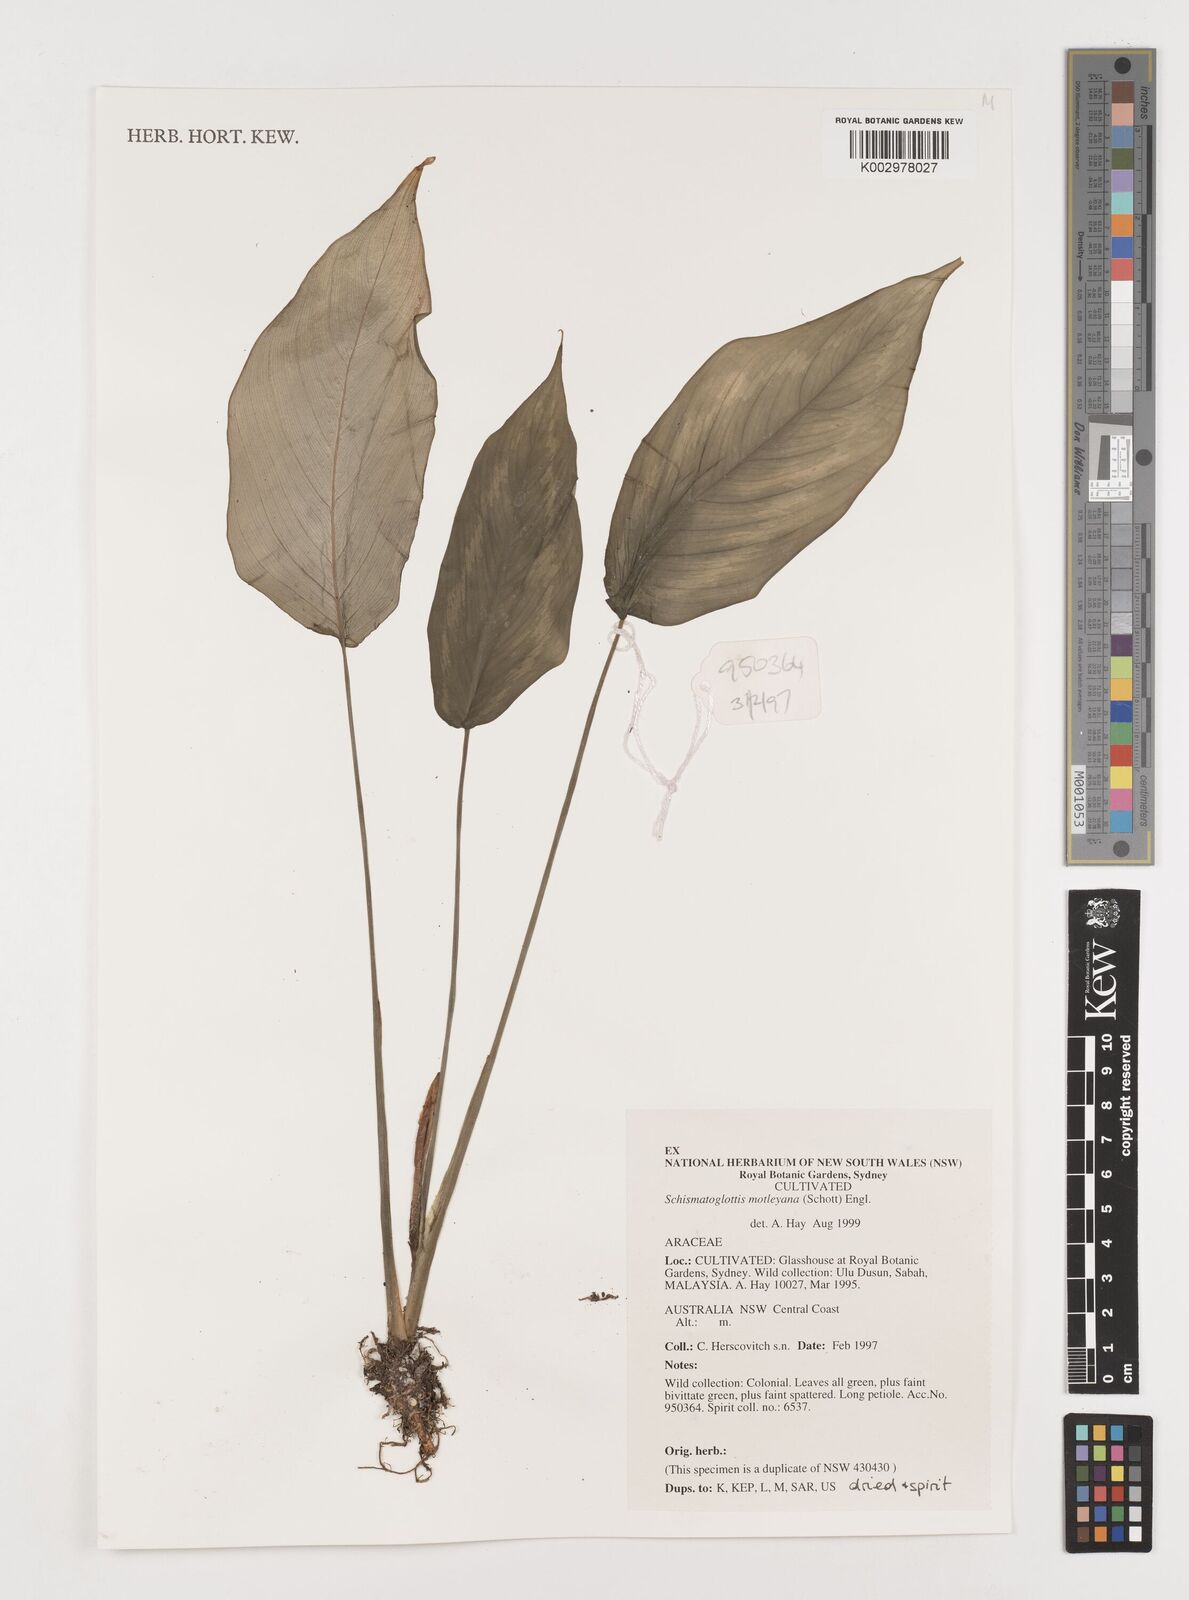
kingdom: Plantae
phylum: Tracheophyta
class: Liliopsida
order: Alismatales
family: Araceae
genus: Schismatoglottis
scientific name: Schismatoglottis motleyana
